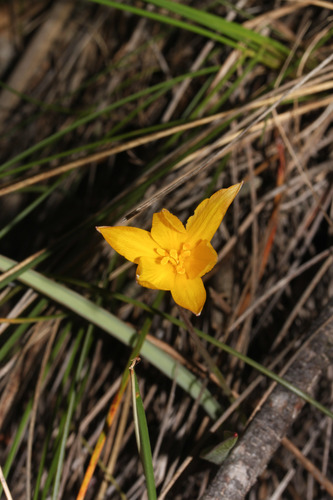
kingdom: Plantae
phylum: Tracheophyta
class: Liliopsida
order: Liliales
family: Liliaceae
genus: Tulipa
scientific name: Tulipa sylvestris
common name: Wild tulip
